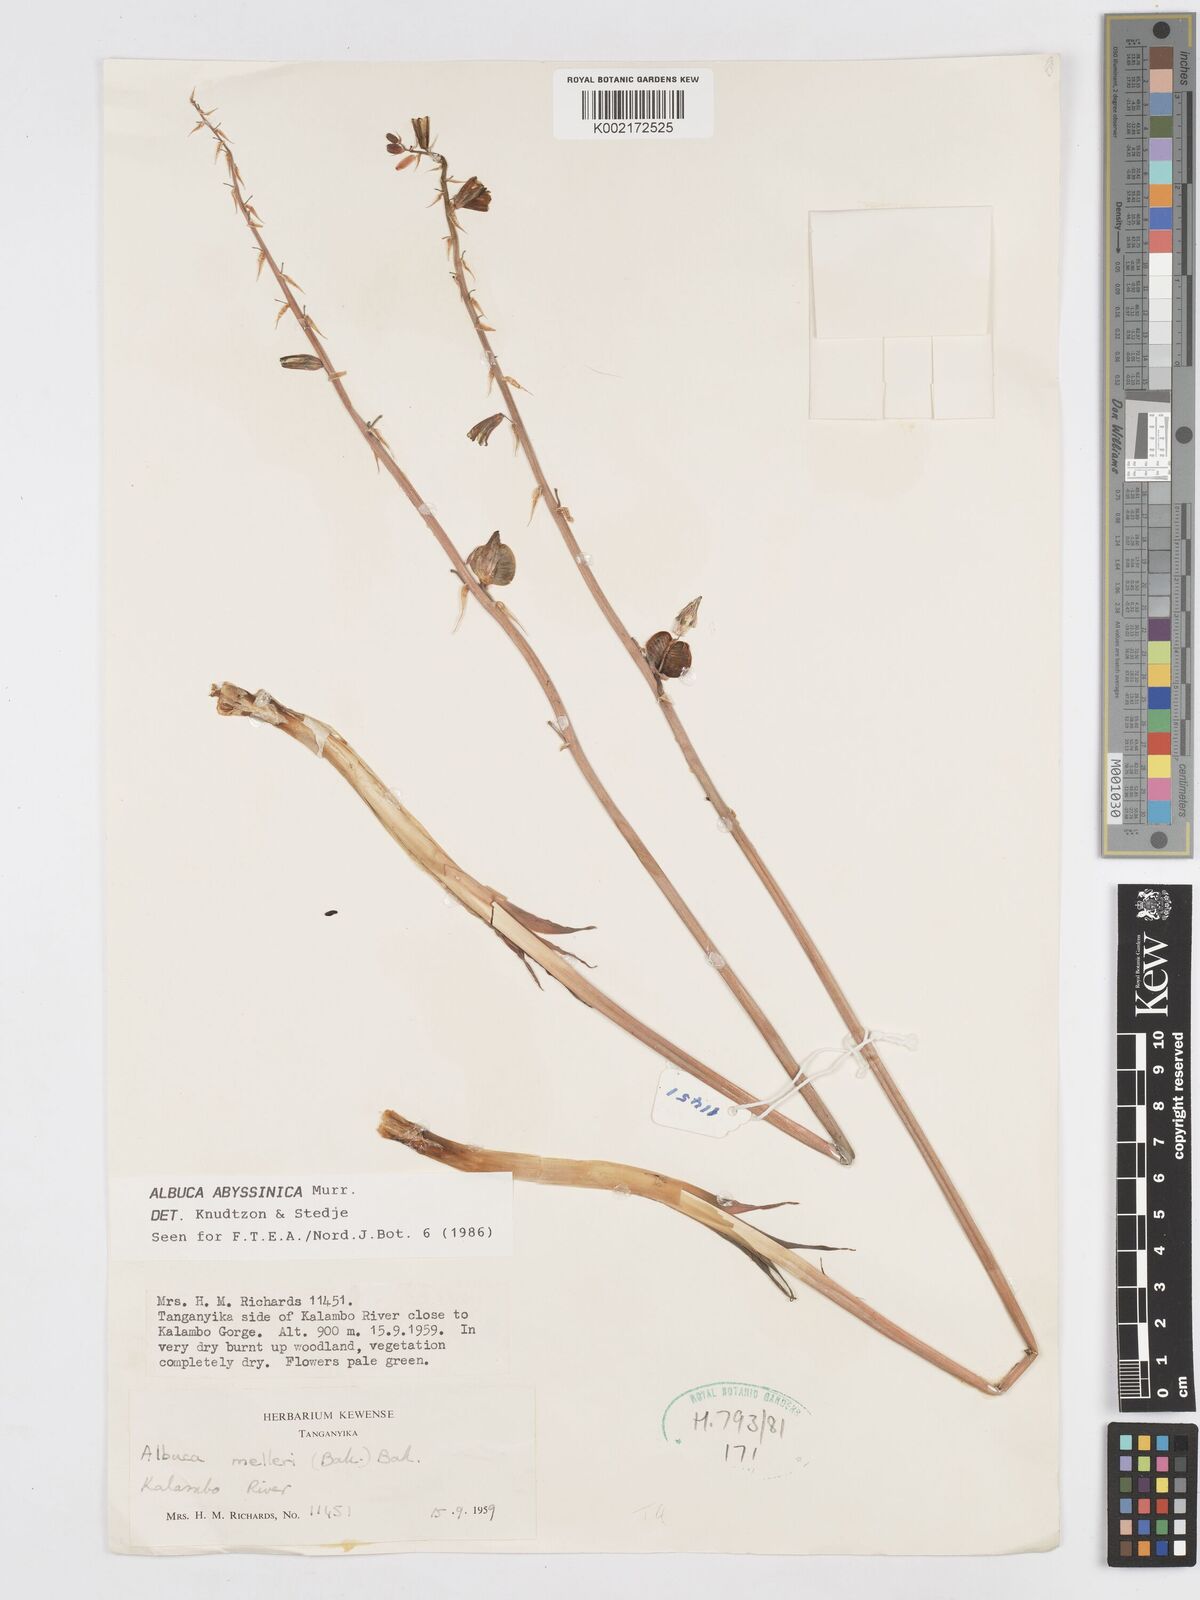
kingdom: Plantae
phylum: Tracheophyta
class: Liliopsida
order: Asparagales
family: Asparagaceae
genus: Albuca
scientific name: Albuca abyssinica
